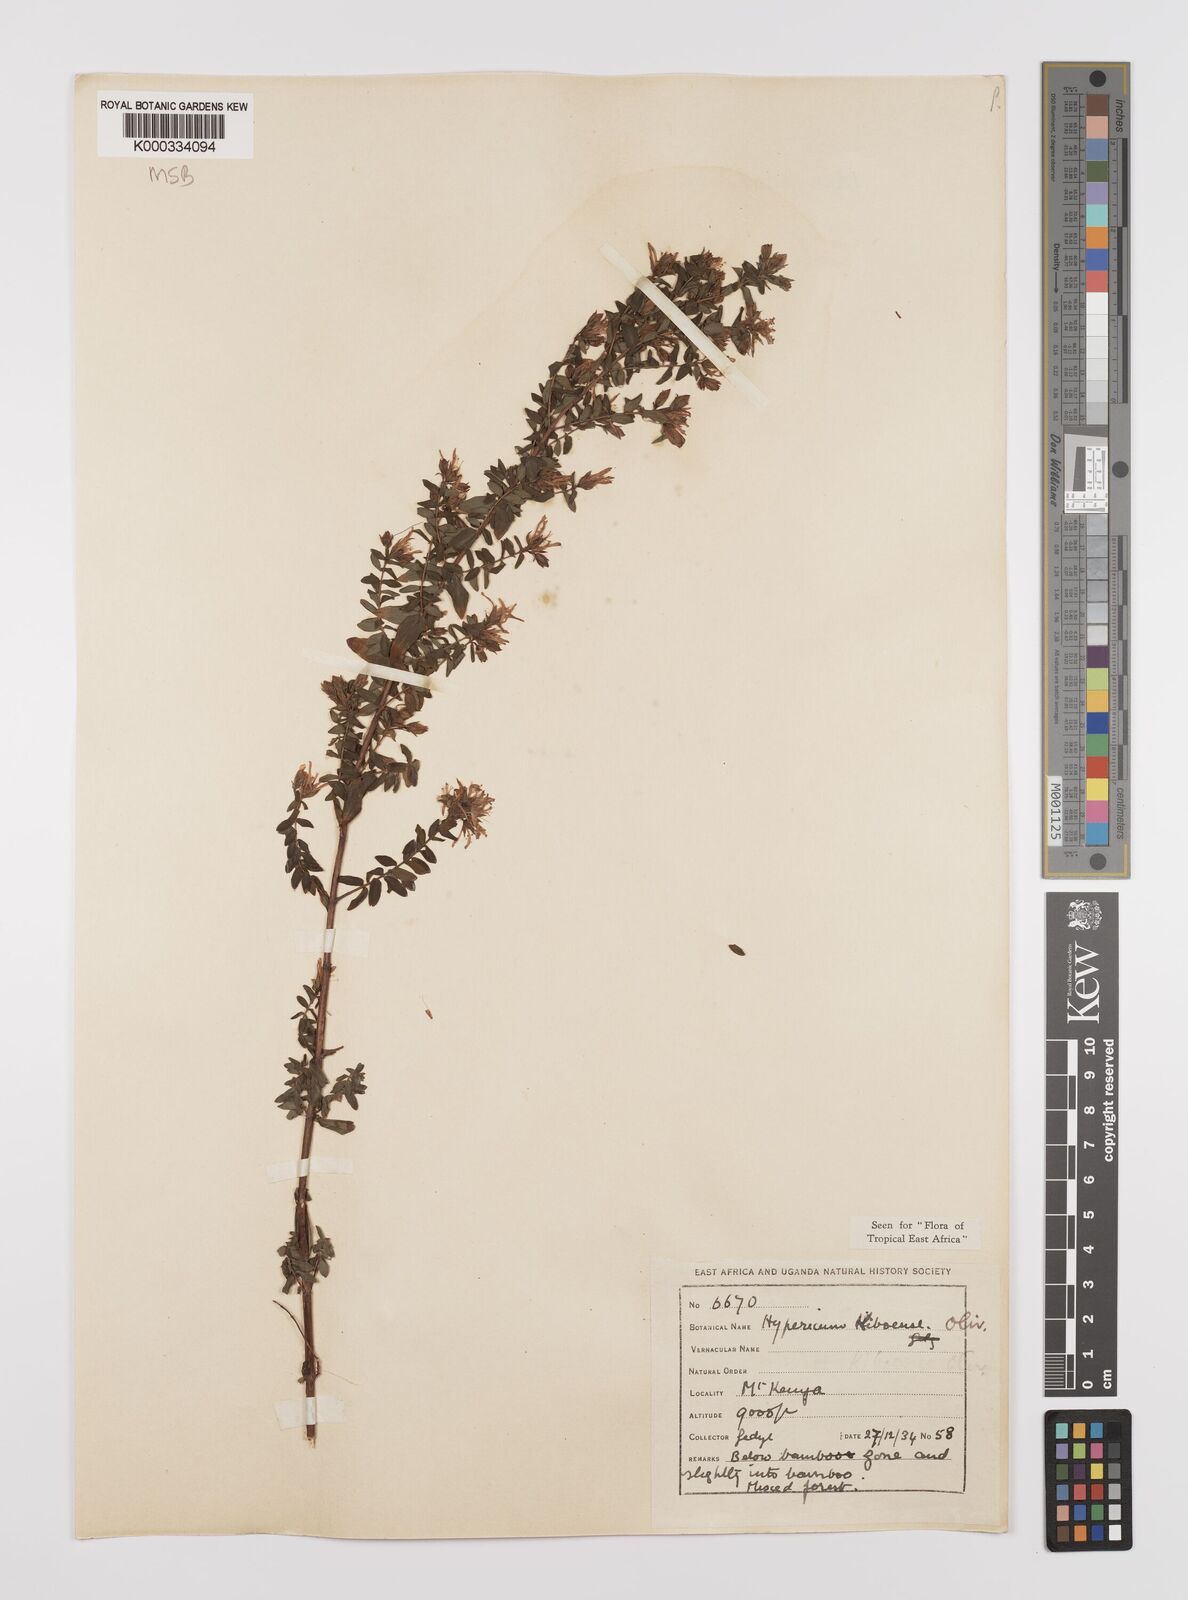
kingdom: Plantae
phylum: Tracheophyta
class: Magnoliopsida
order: Malpighiales
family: Hypericaceae
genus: Hypericum
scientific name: Hypericum kiboense
